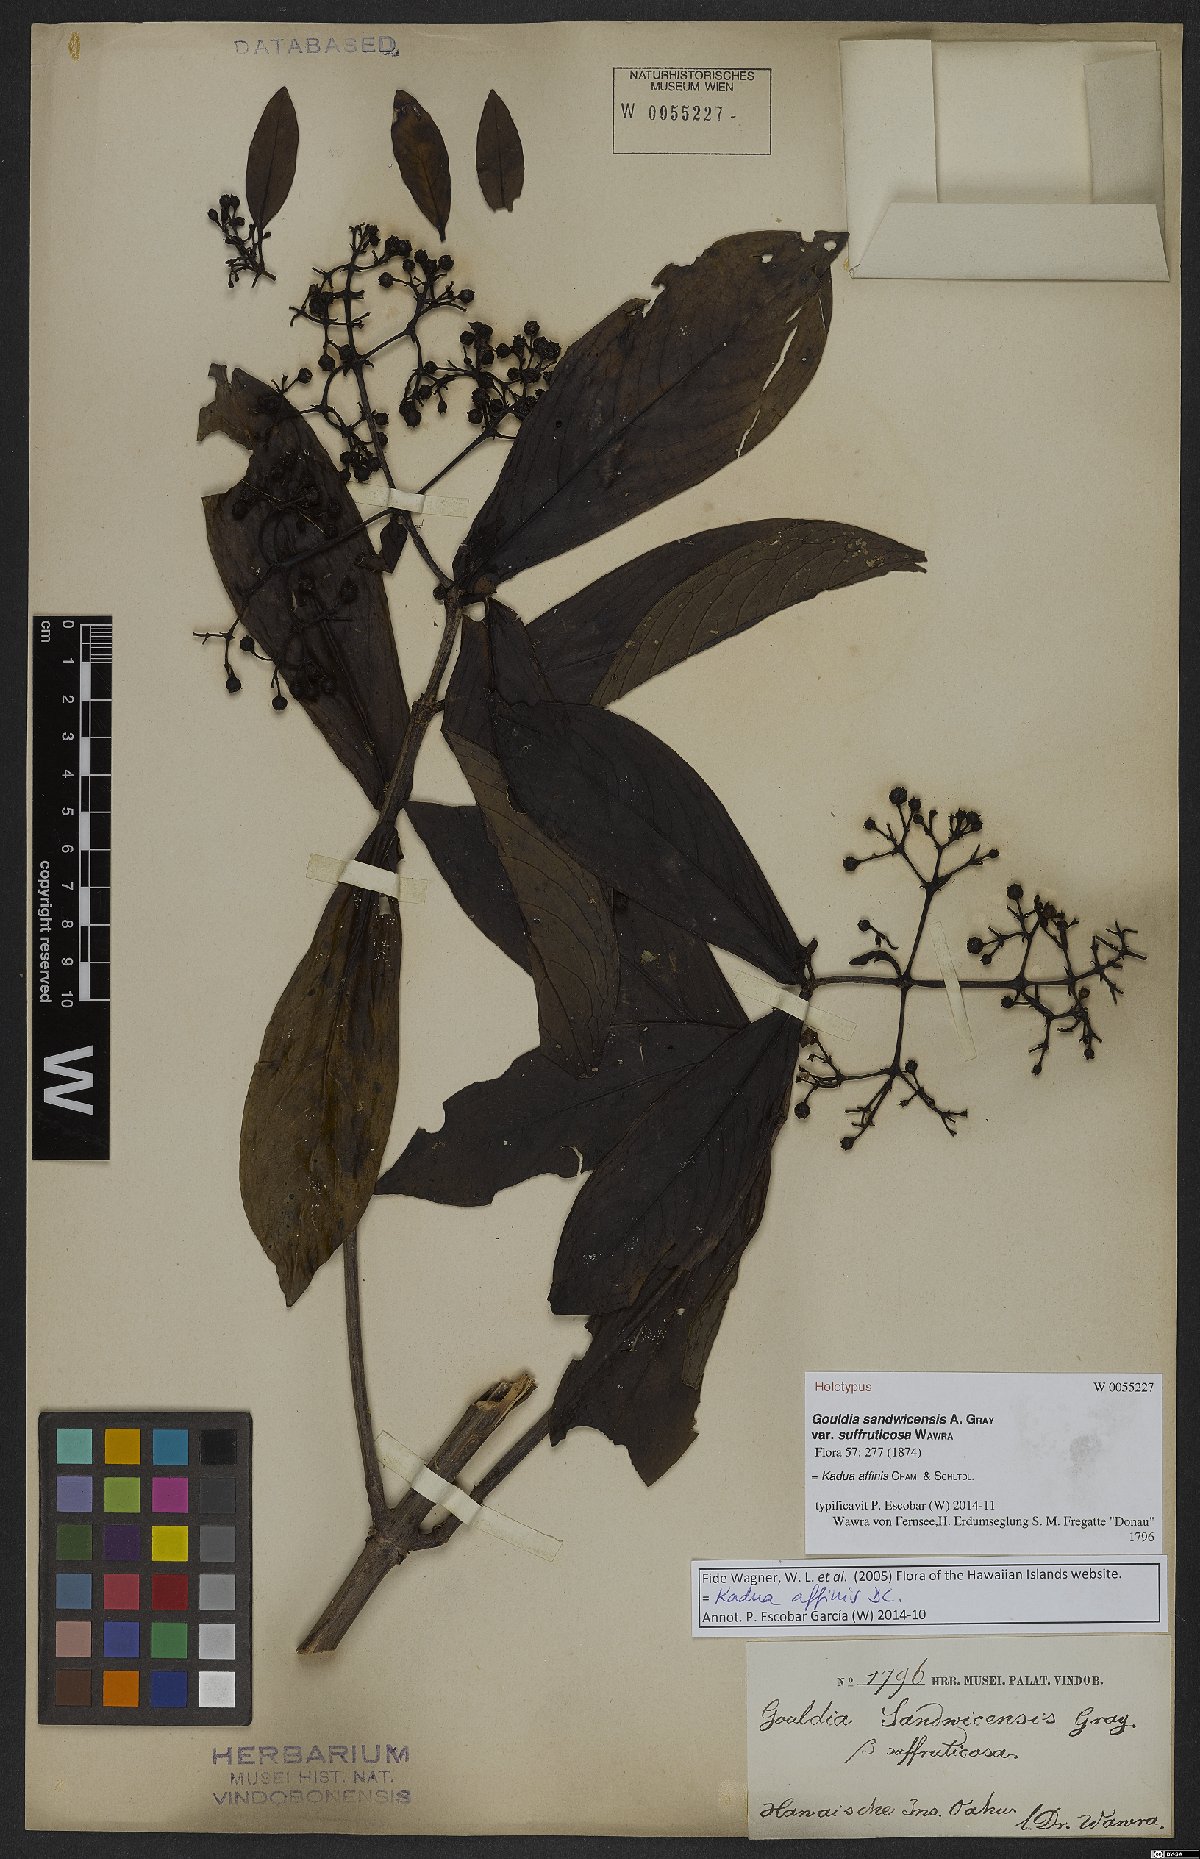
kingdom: Plantae
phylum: Tracheophyta
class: Magnoliopsida
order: Gentianales
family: Rubiaceae
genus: Kadua
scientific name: Kadua affinis
